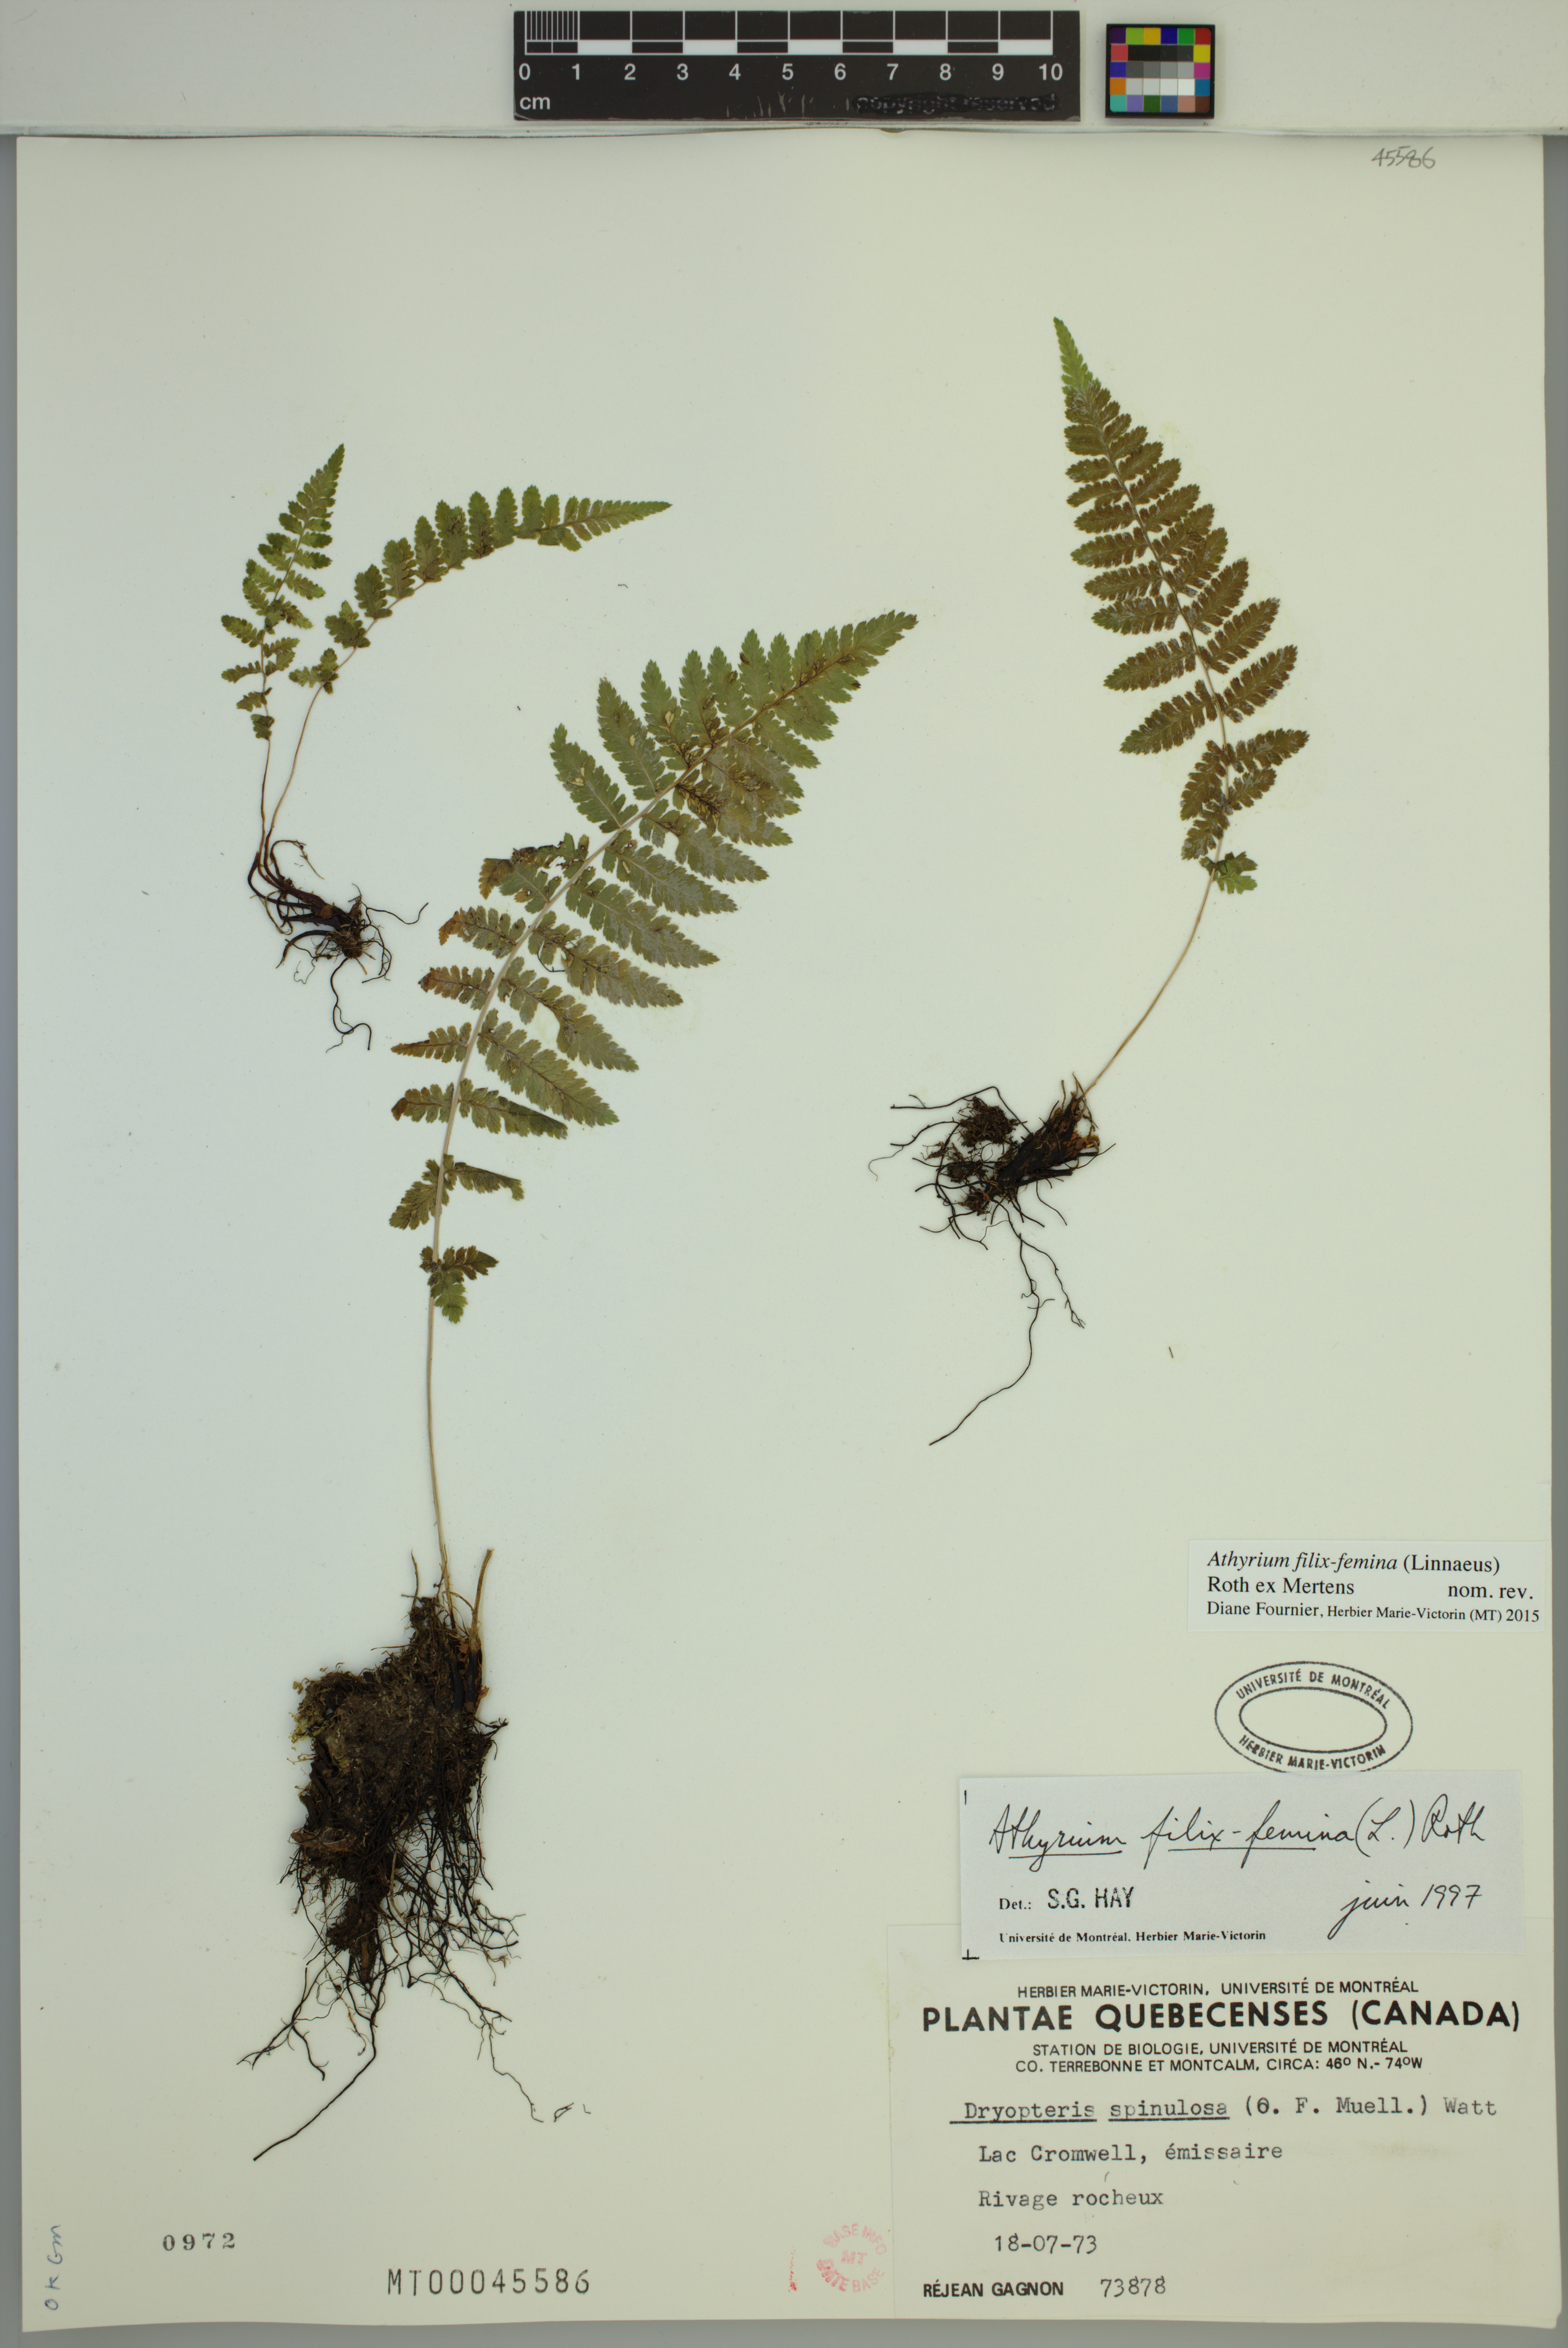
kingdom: Plantae
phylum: Tracheophyta
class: Polypodiopsida
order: Polypodiales
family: Athyriaceae
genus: Athyrium
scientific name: Athyrium filix-femina
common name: Lady fern
